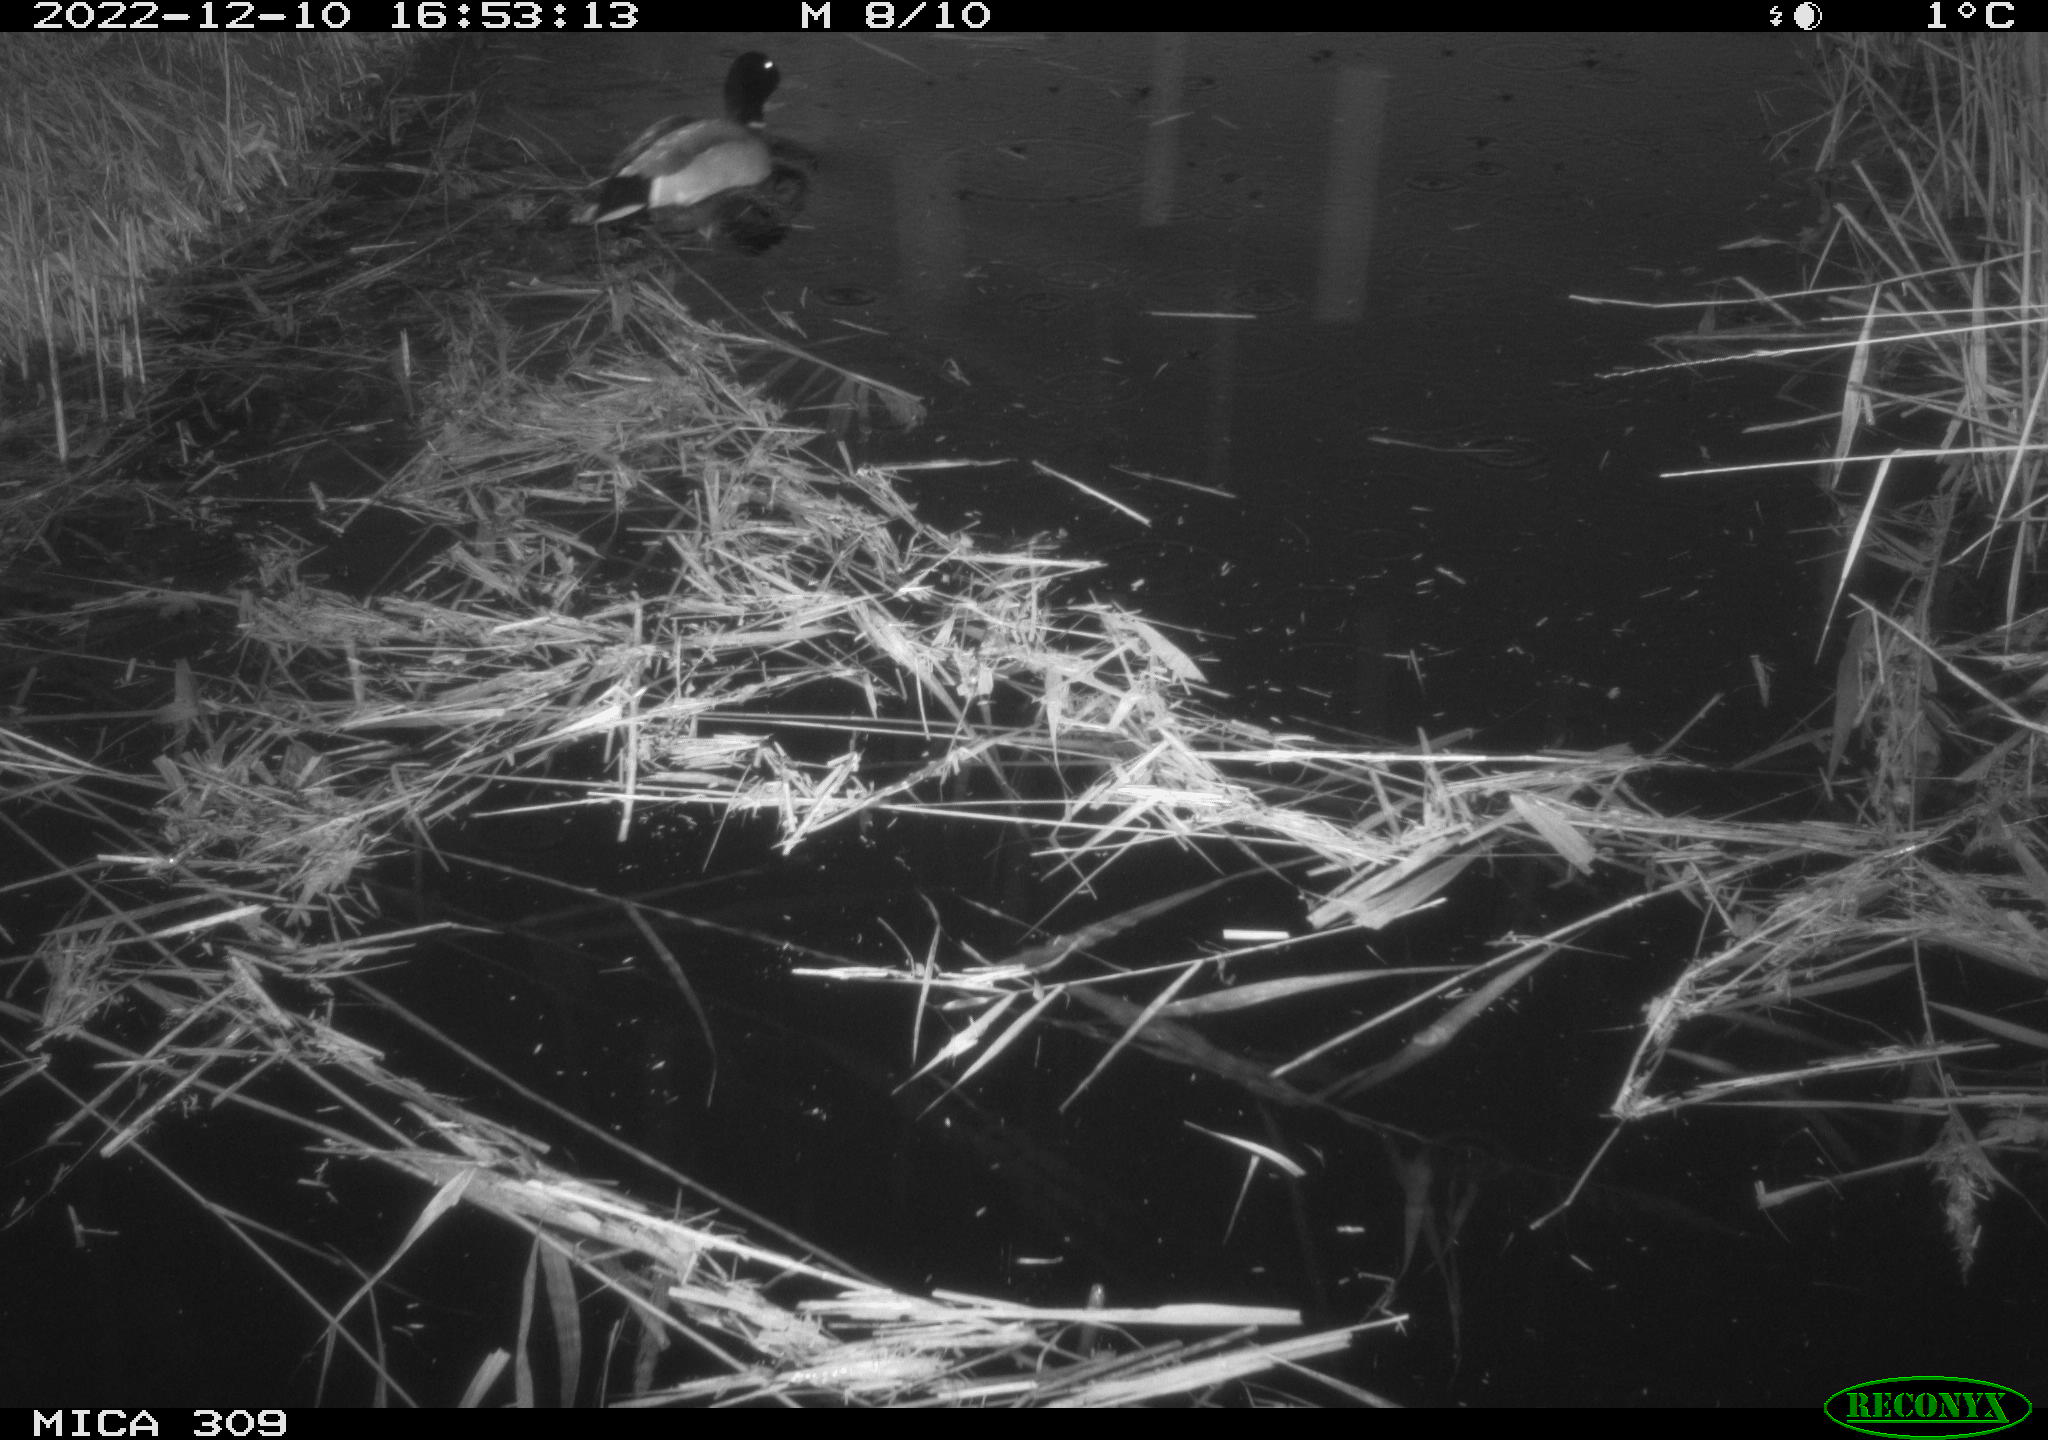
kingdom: Animalia
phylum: Chordata
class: Aves
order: Anseriformes
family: Anatidae
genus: Anas
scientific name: Anas
